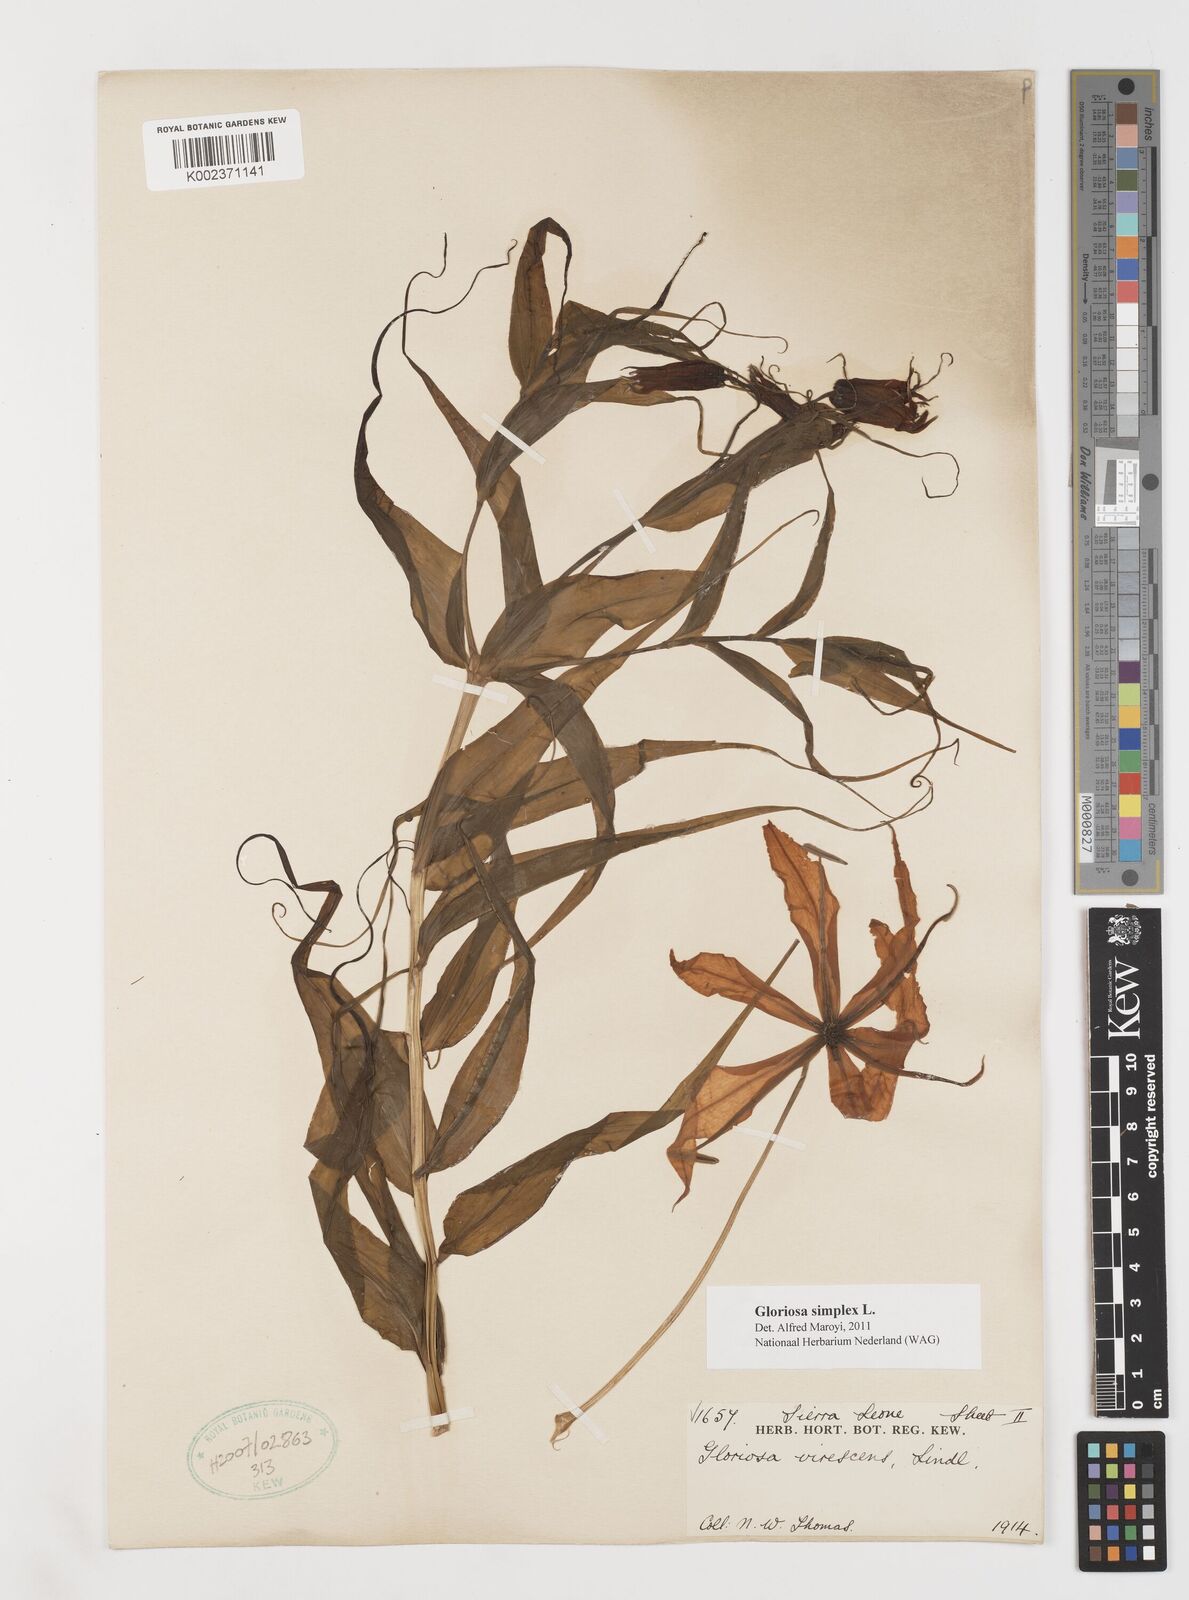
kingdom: Plantae
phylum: Tracheophyta
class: Liliopsida
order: Liliales
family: Colchicaceae
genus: Gloriosa
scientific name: Gloriosa simplex
